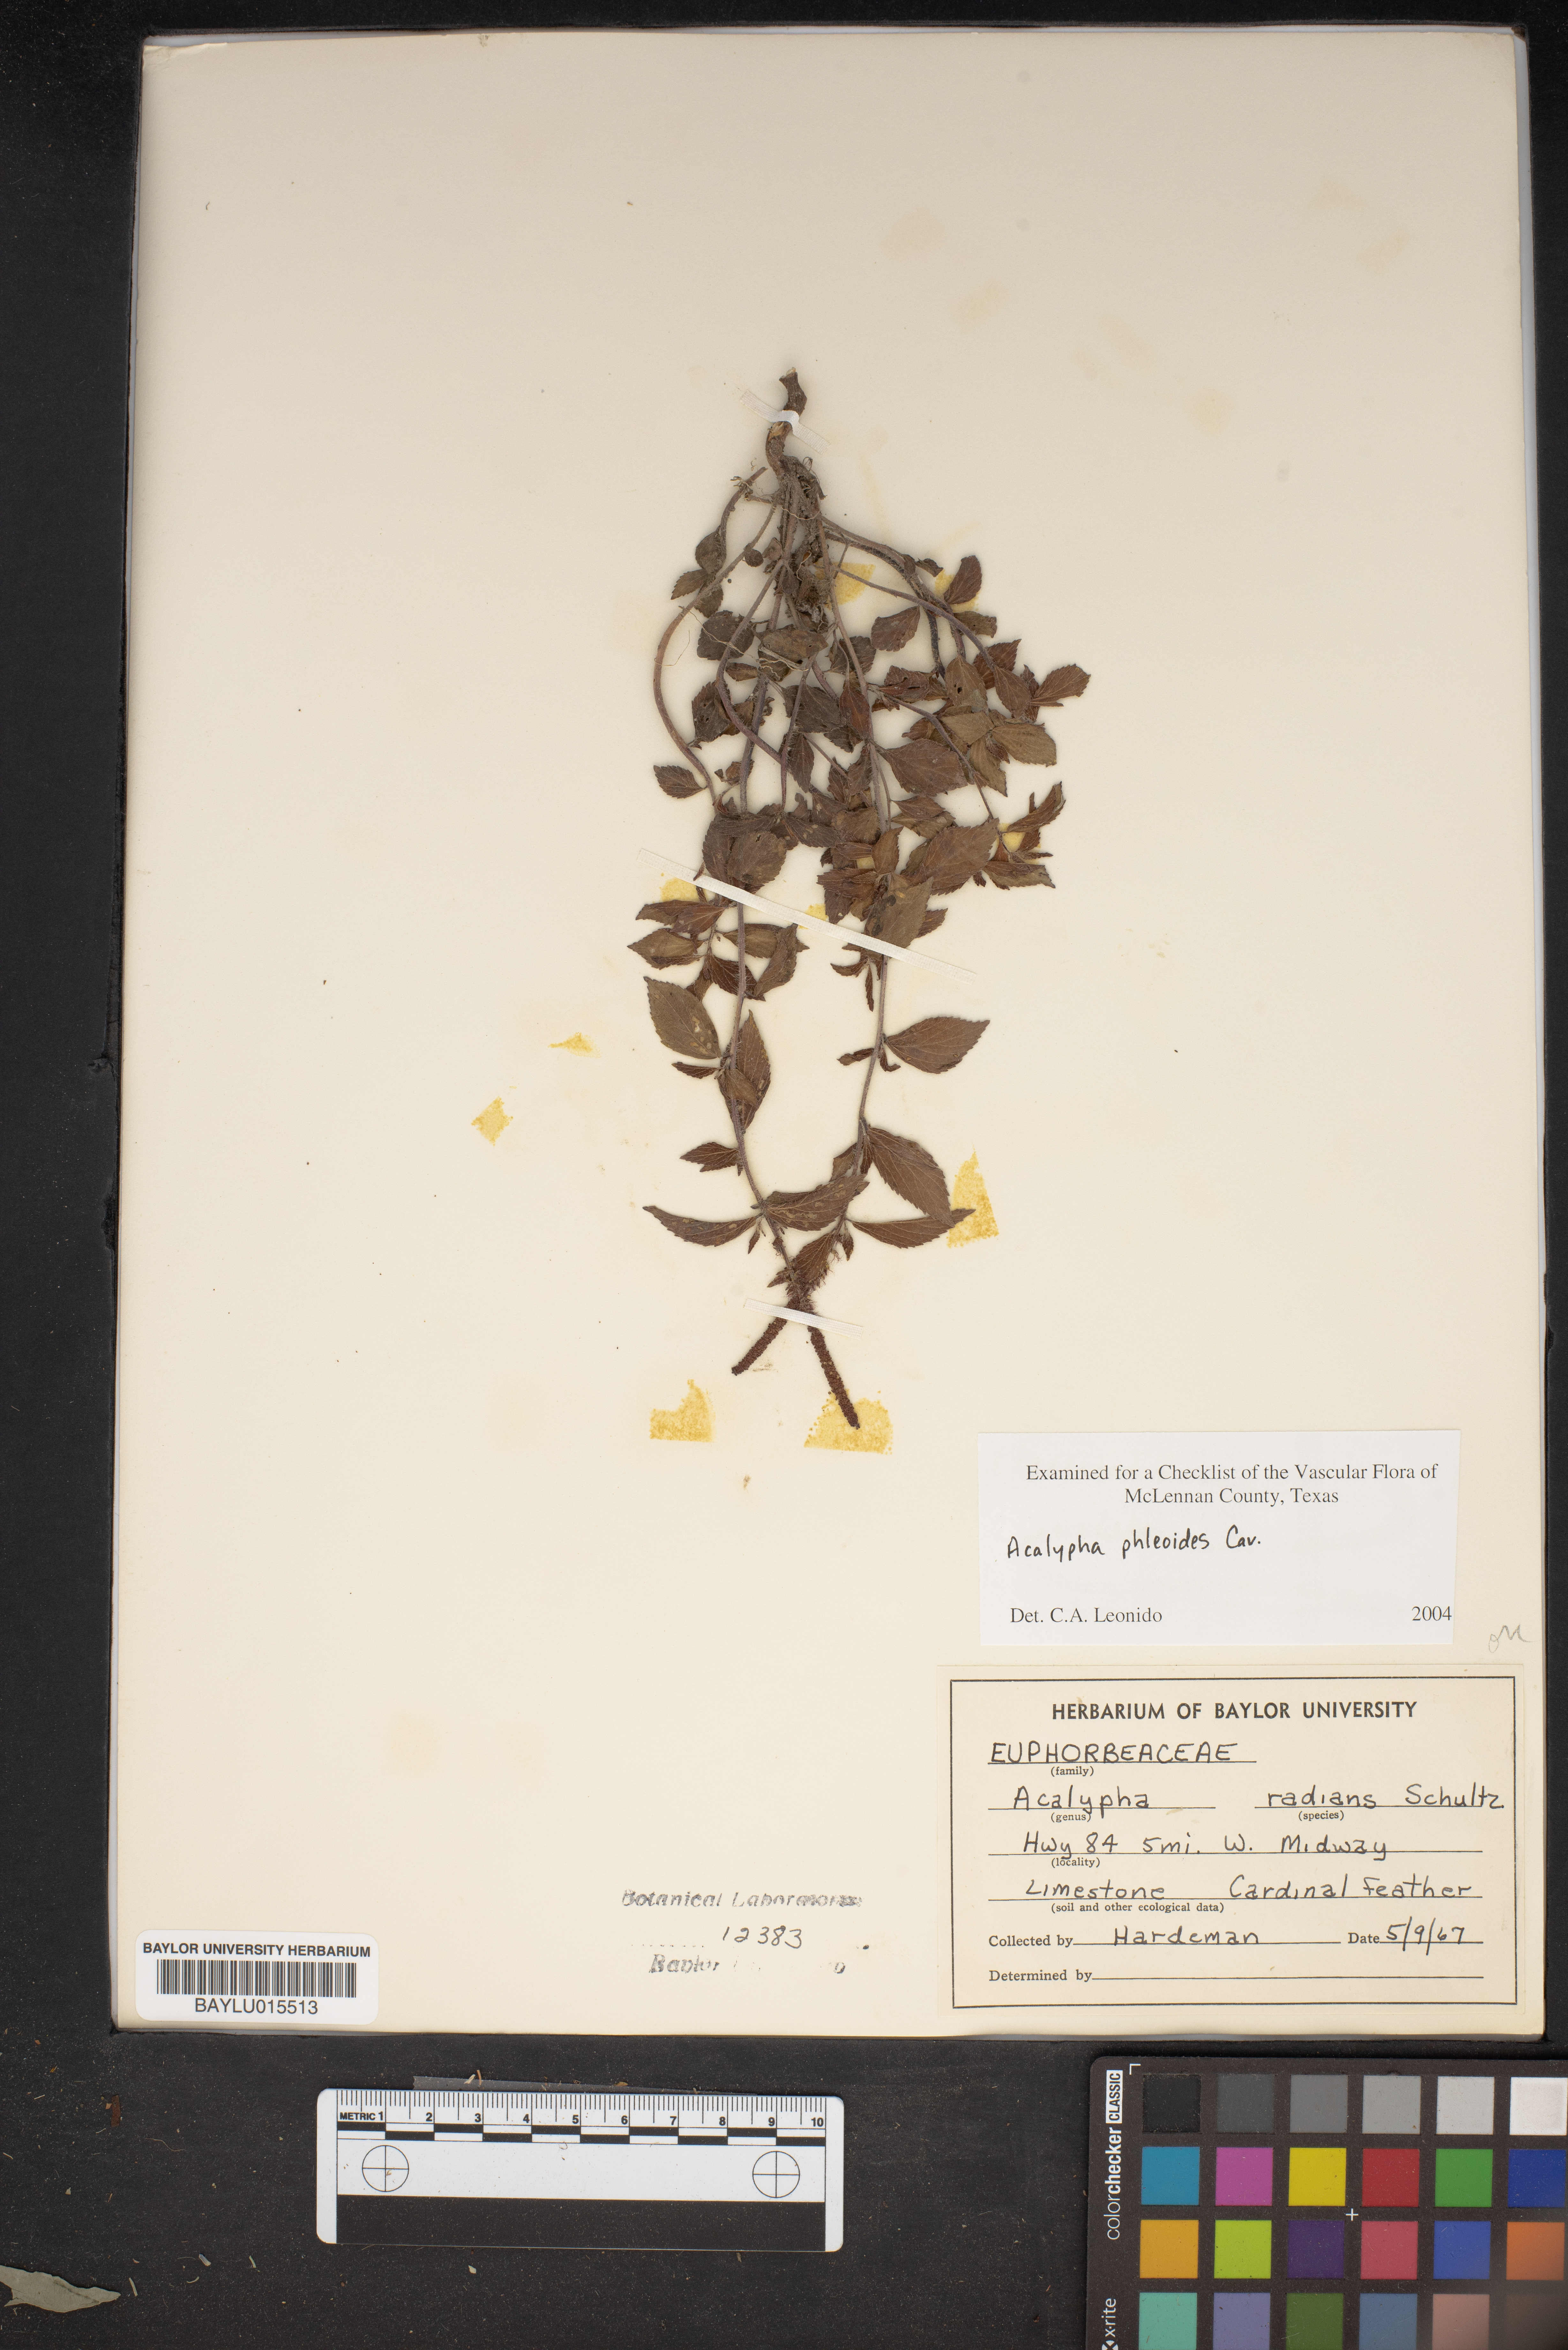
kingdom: Plantae
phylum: Tracheophyta
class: Magnoliopsida
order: Malpighiales
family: Euphorbiaceae
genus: Acalypha
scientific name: Acalypha phleoides
